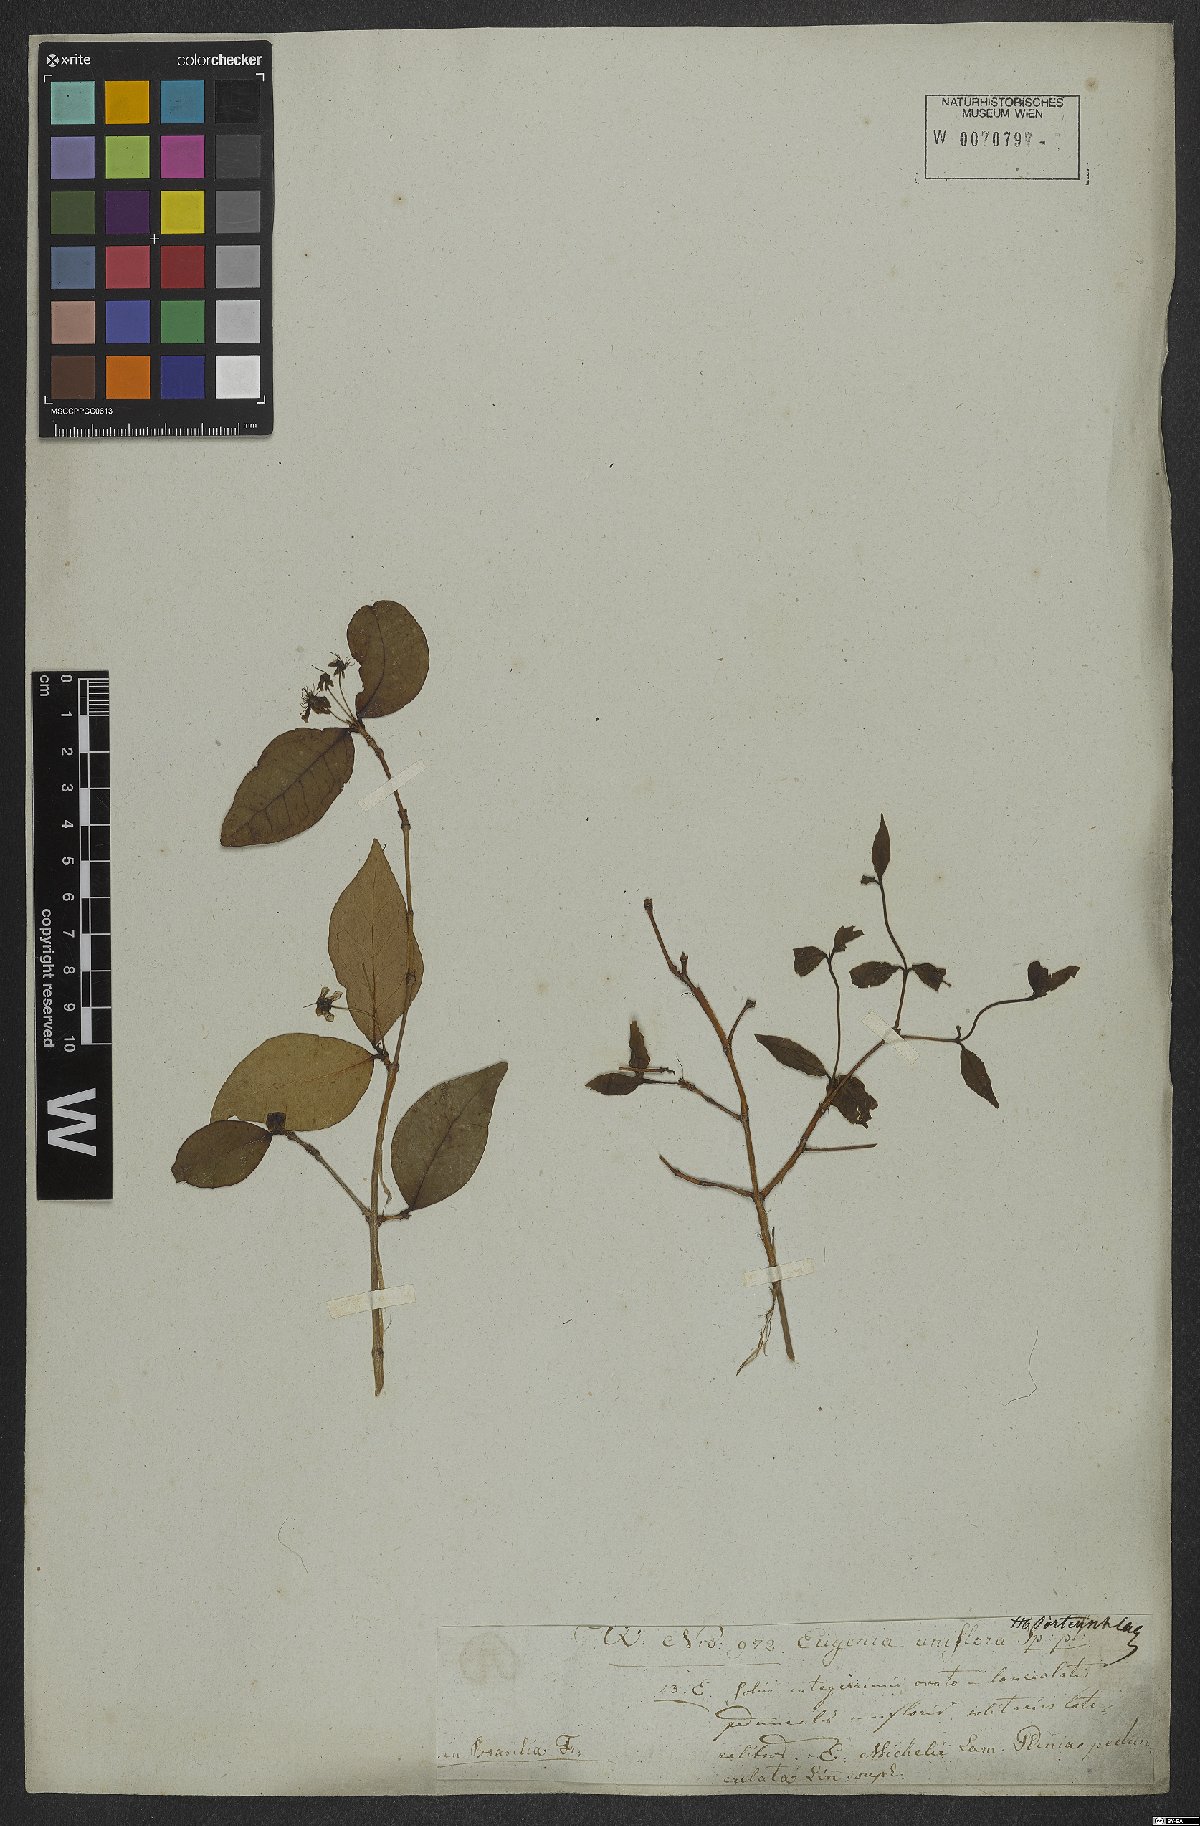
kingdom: Plantae
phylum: Tracheophyta
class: Magnoliopsida
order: Myrtales
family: Myrtaceae
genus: Eugenia
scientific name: Eugenia uniflora
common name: Surinam cherry
